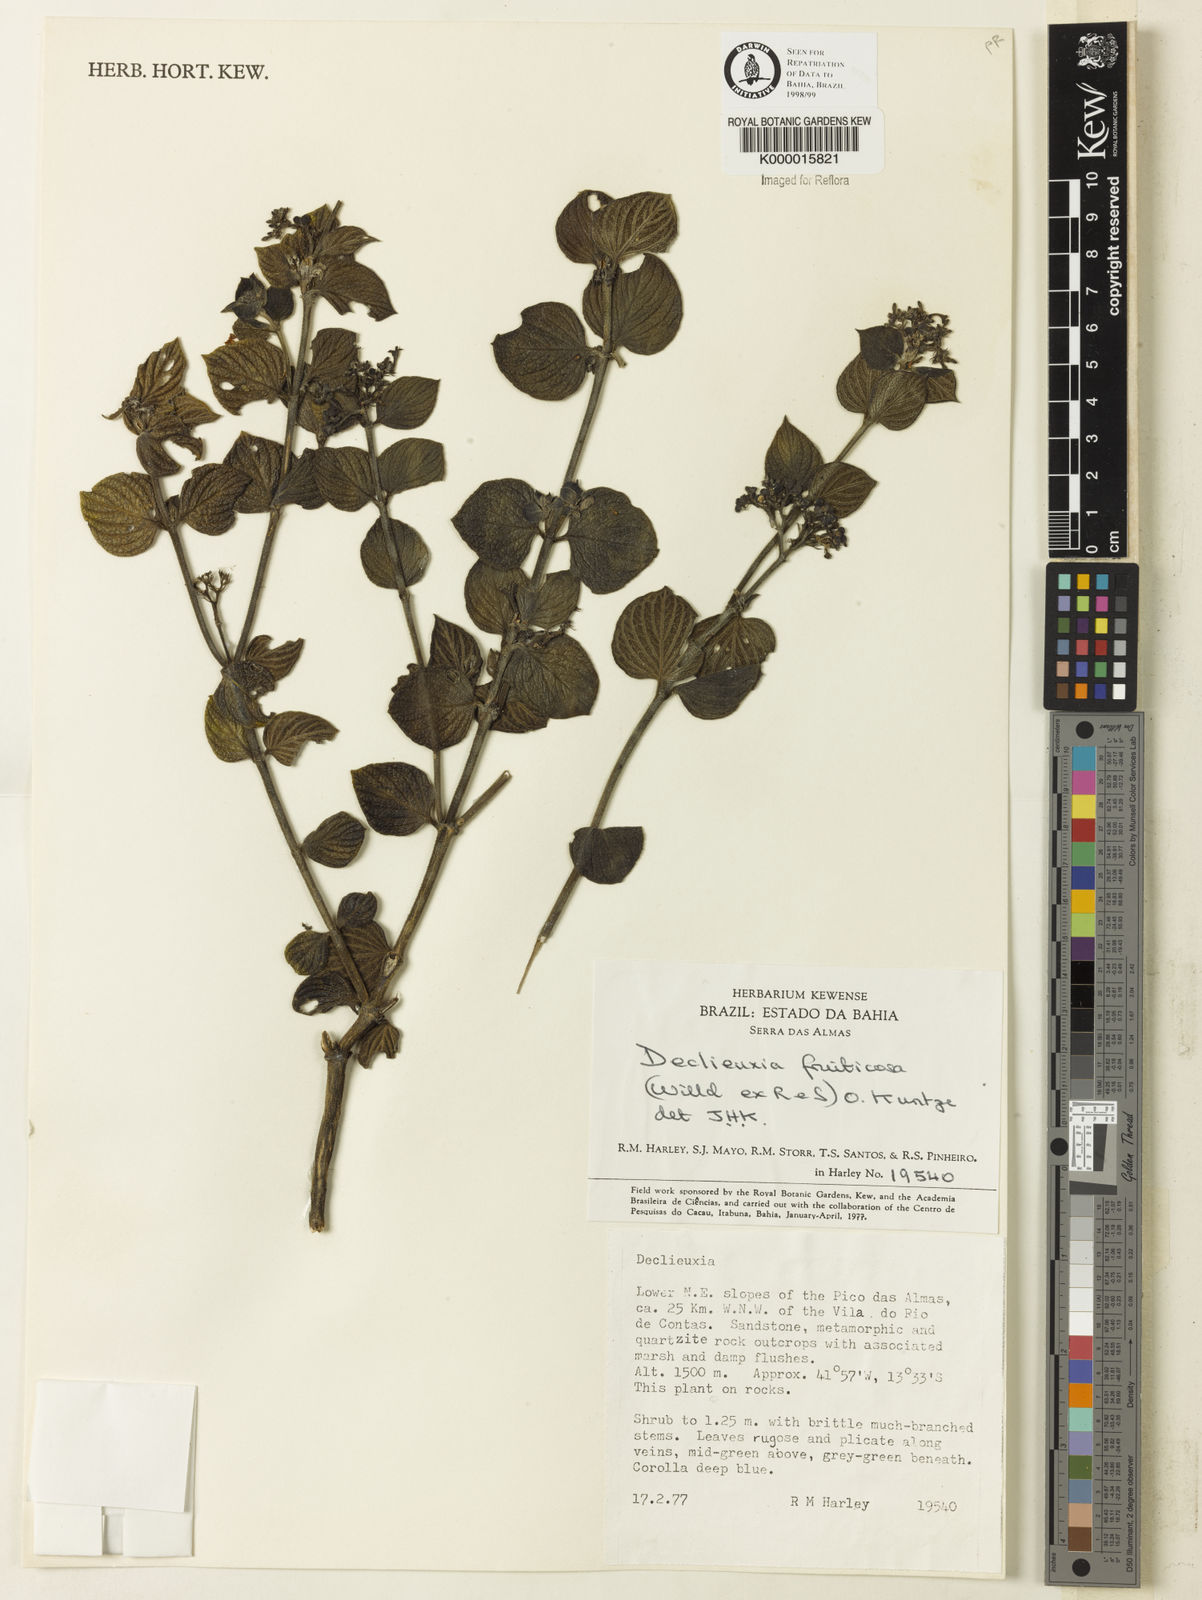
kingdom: Plantae
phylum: Tracheophyta
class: Magnoliopsida
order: Gentianales
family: Rubiaceae
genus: Declieuxia
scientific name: Declieuxia fruticosa
